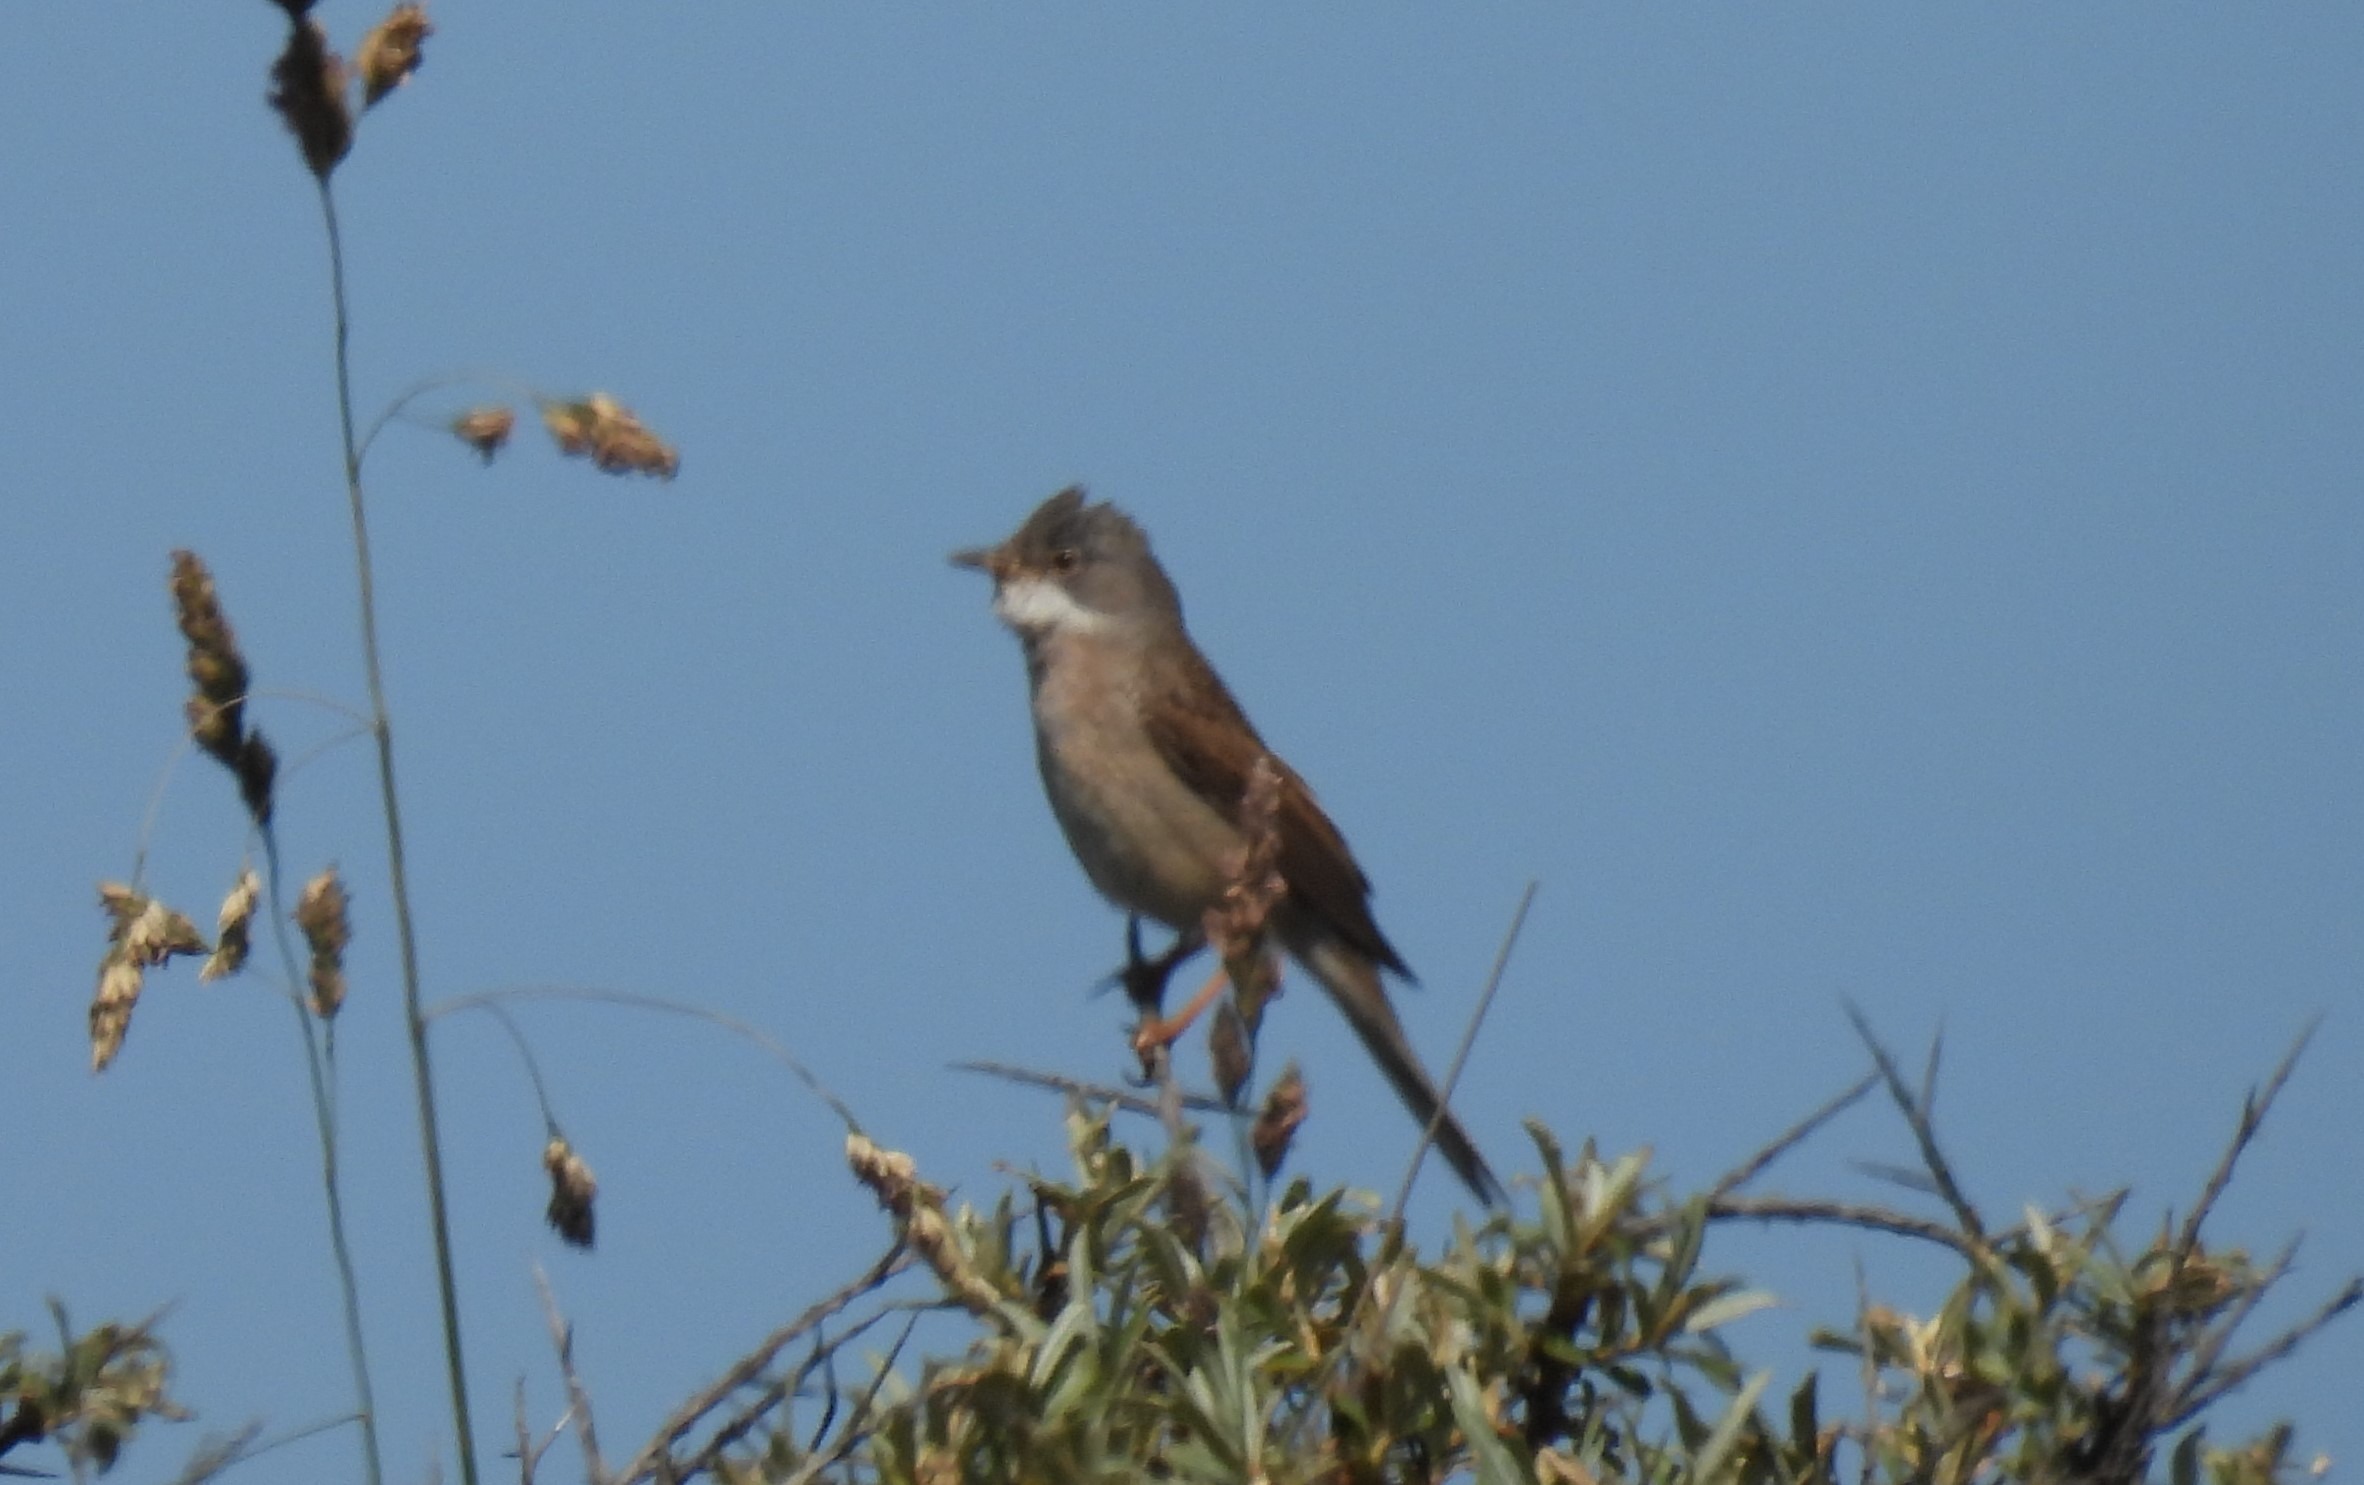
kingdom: Animalia
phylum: Chordata
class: Aves
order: Passeriformes
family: Sylviidae
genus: Sylvia
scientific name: Sylvia communis
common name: Tornsanger
